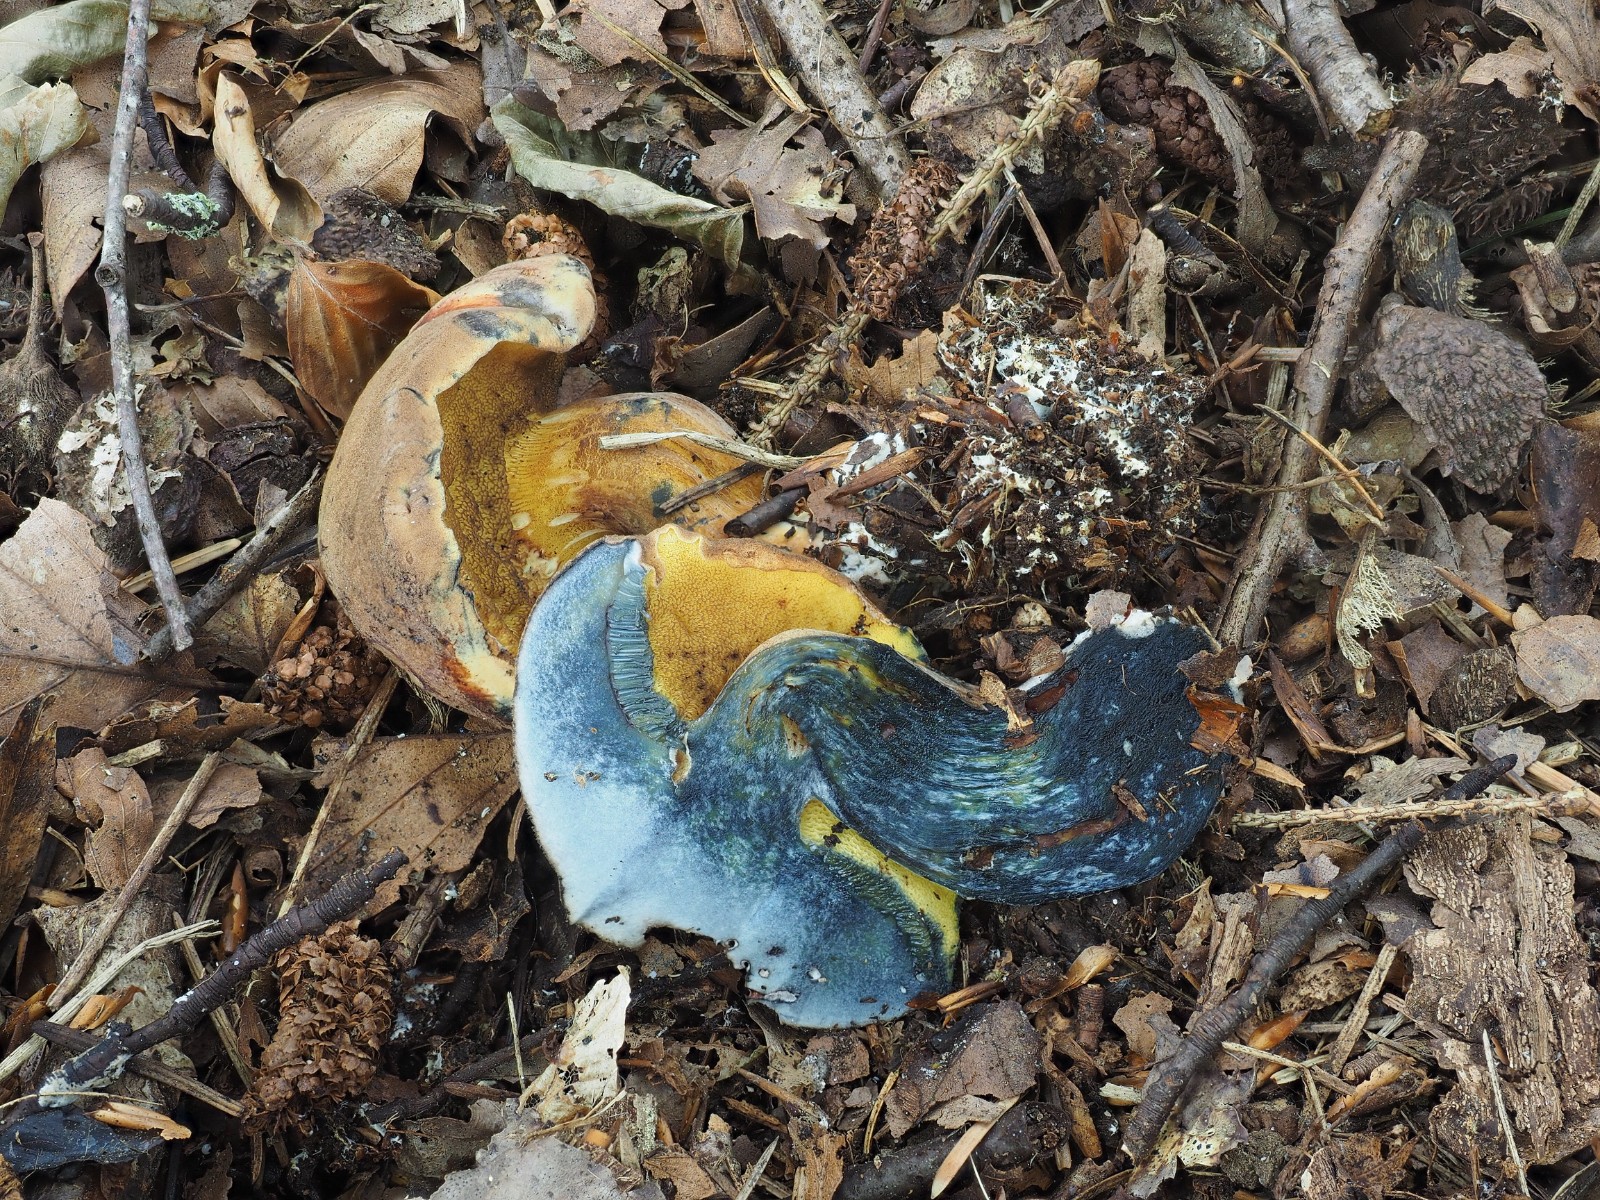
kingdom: Fungi
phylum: Basidiomycota
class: Agaricomycetes
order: Boletales
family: Boletaceae
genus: Cyanoboletus
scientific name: Cyanoboletus pulverulentus
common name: sortblånende rørhat
